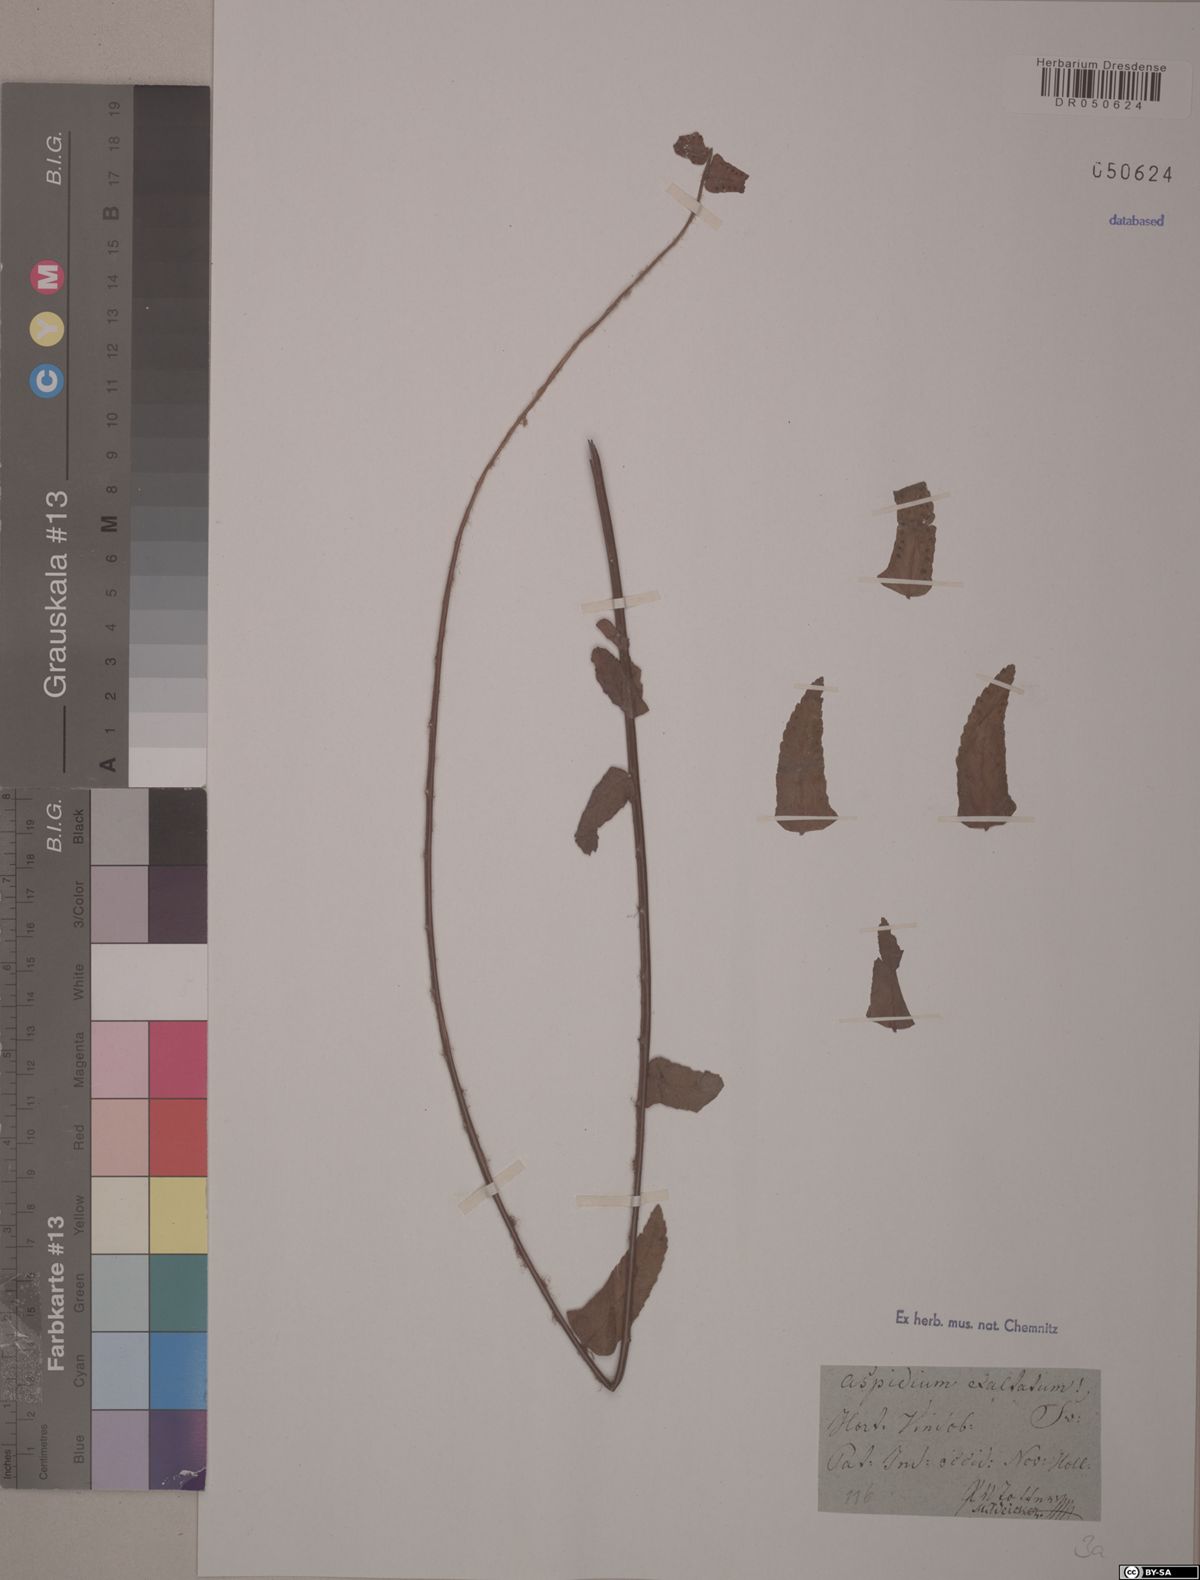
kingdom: Plantae
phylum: Tracheophyta
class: Polypodiopsida
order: Polypodiales
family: Nephrolepidaceae
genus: Nephrolepis
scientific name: Nephrolepis exaltata
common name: Sword fern
